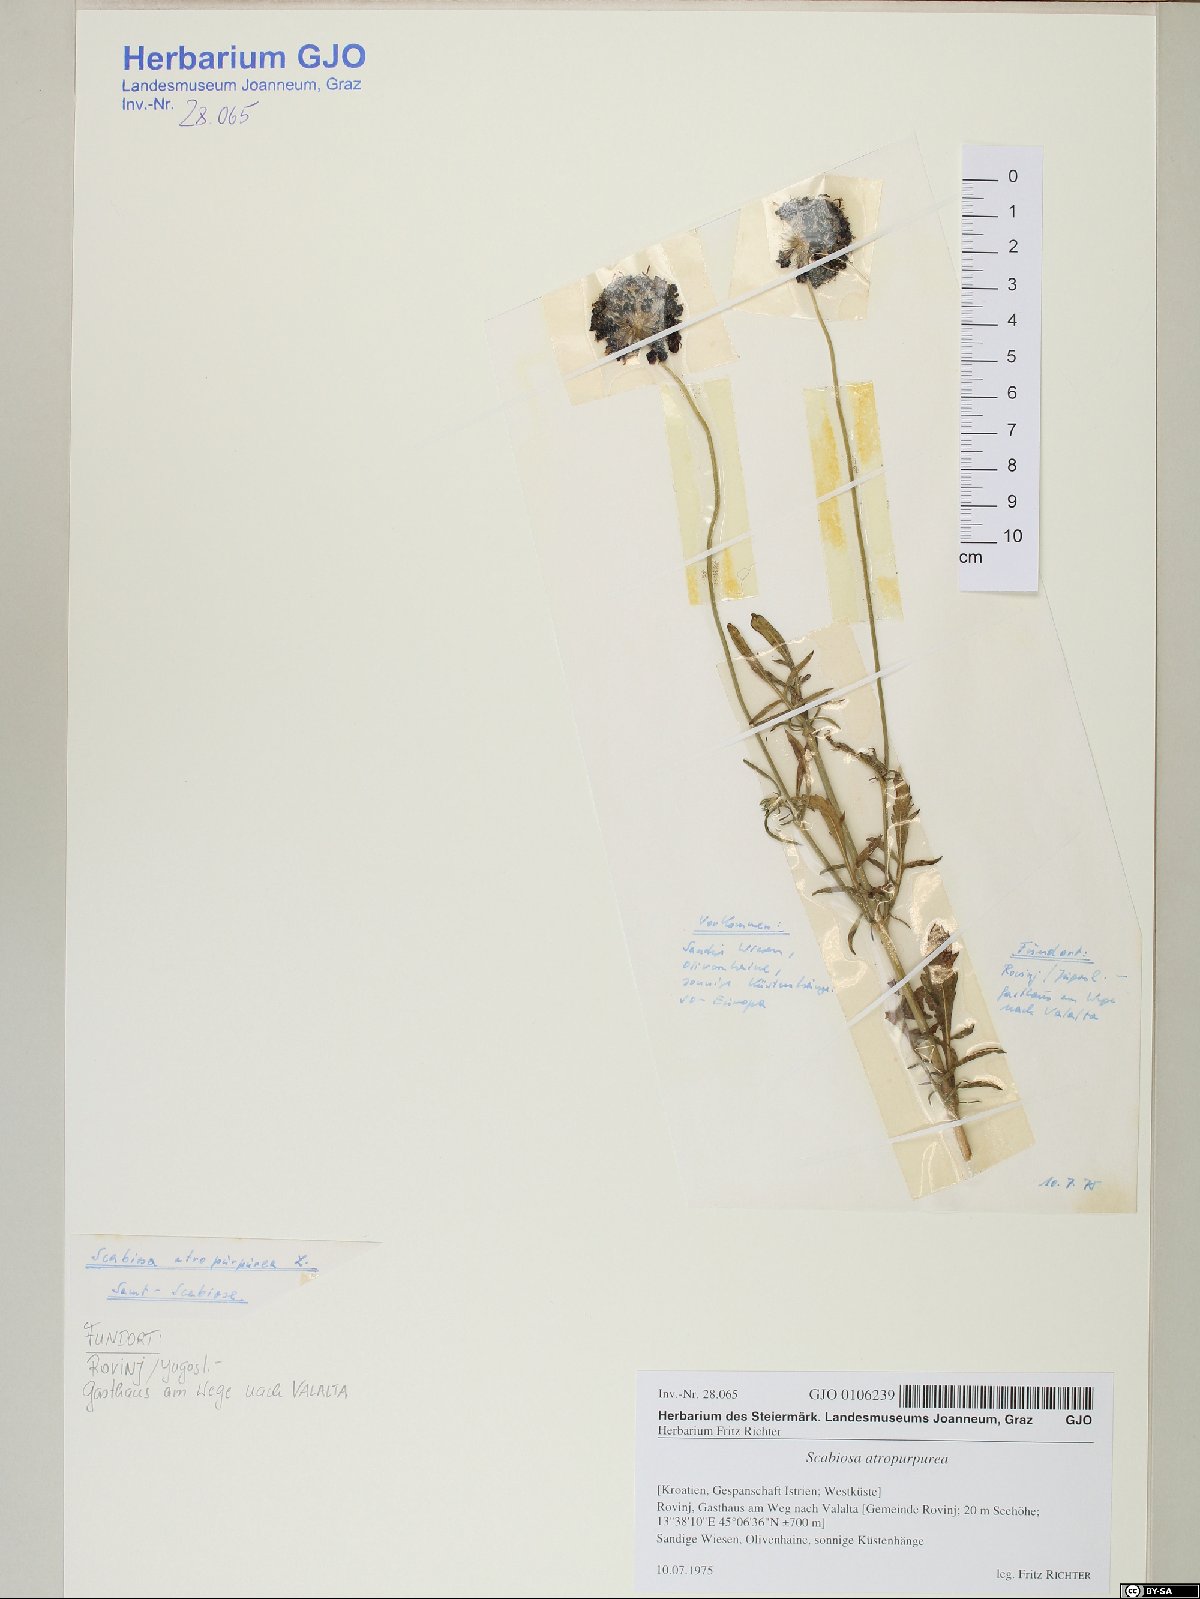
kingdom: Plantae
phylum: Tracheophyta
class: Magnoliopsida
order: Dipsacales
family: Caprifoliaceae
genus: Sixalix
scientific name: Sixalix atropurpurea
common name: Sweet scabious
